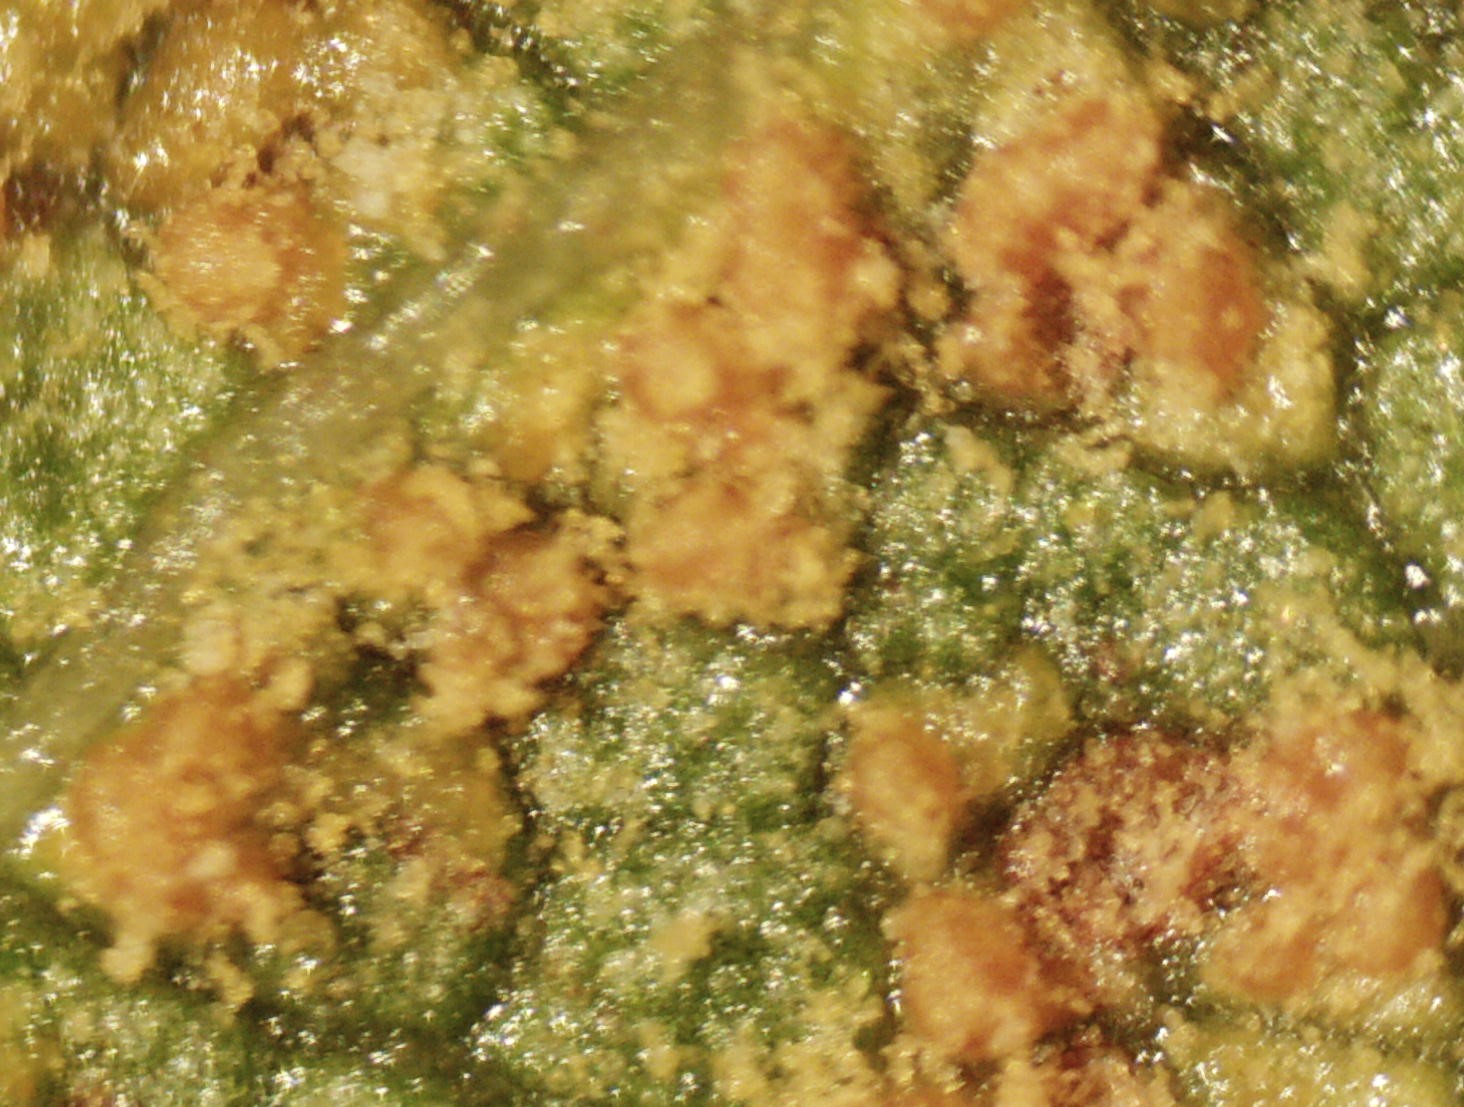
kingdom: Fungi
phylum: Basidiomycota
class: Pucciniomycetes
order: Pucciniales
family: Pucciniastraceae
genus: Melampsoridium
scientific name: Melampsoridium hiratsukanum
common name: Alder rust
